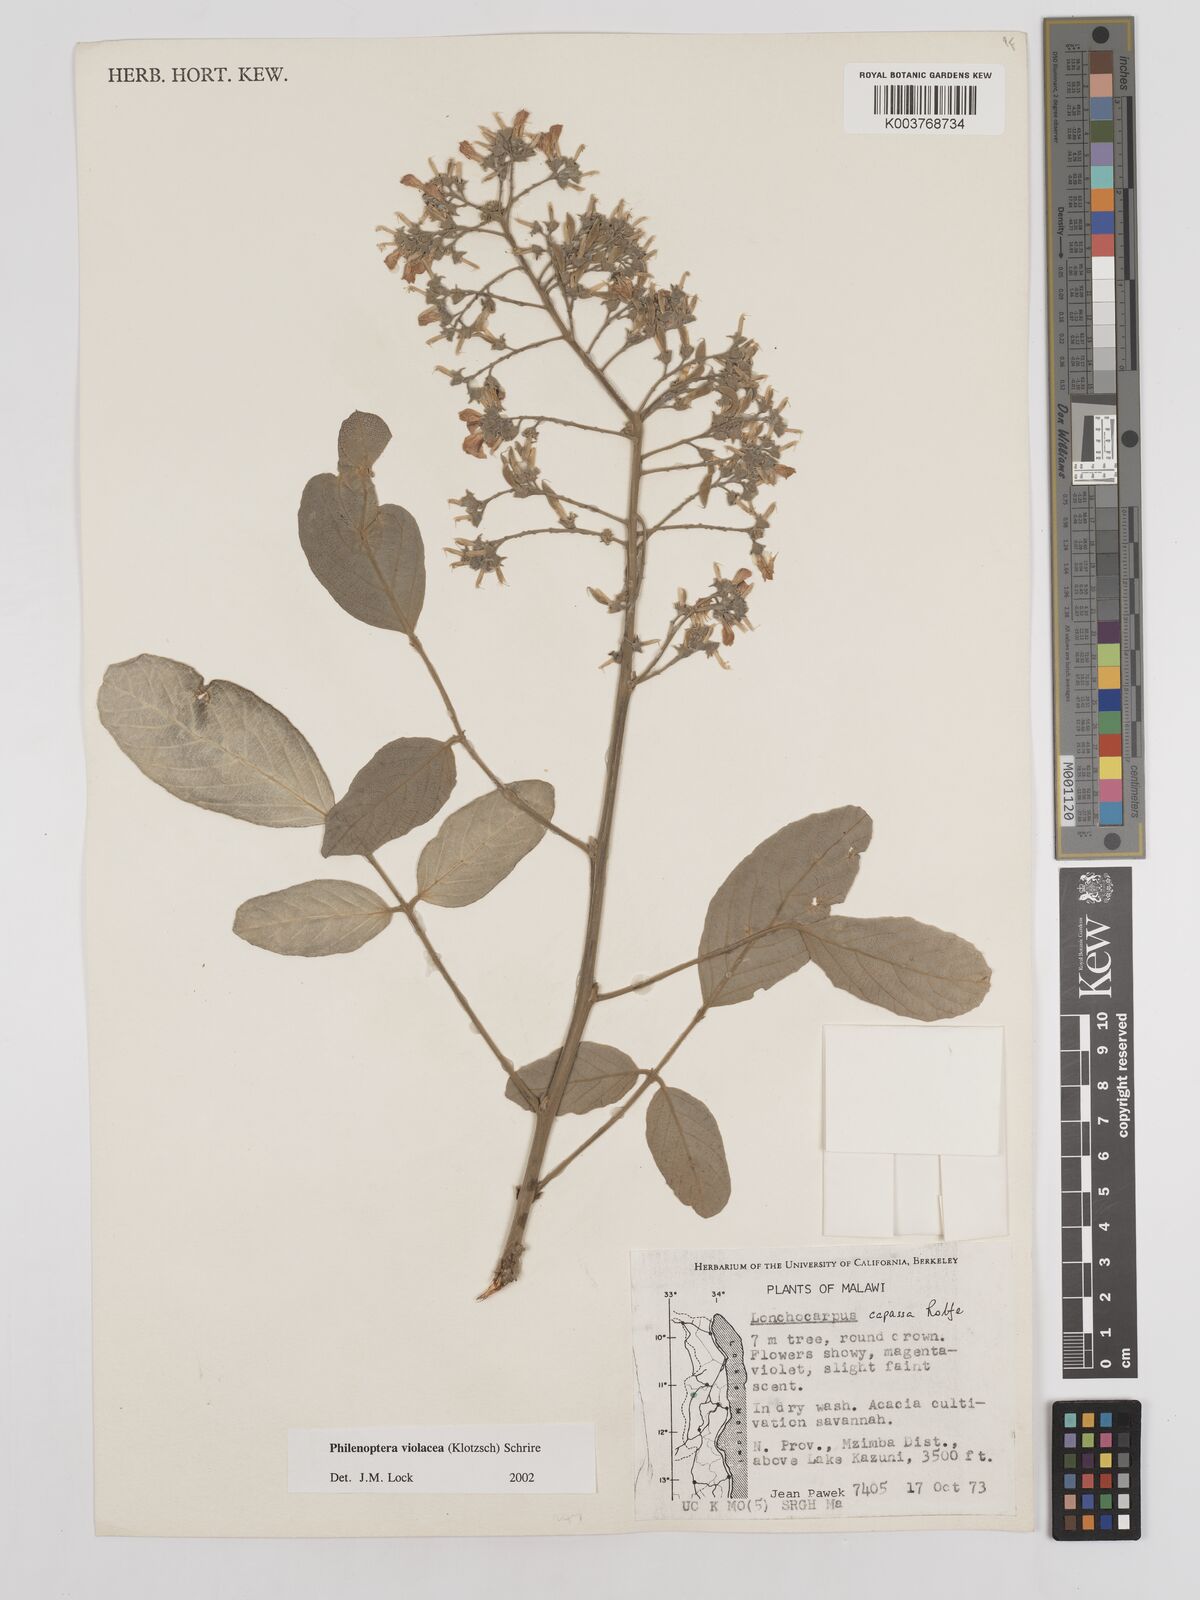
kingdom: Plantae
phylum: Tracheophyta
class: Magnoliopsida
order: Fabales
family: Fabaceae
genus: Philenoptera
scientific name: Philenoptera violacea
